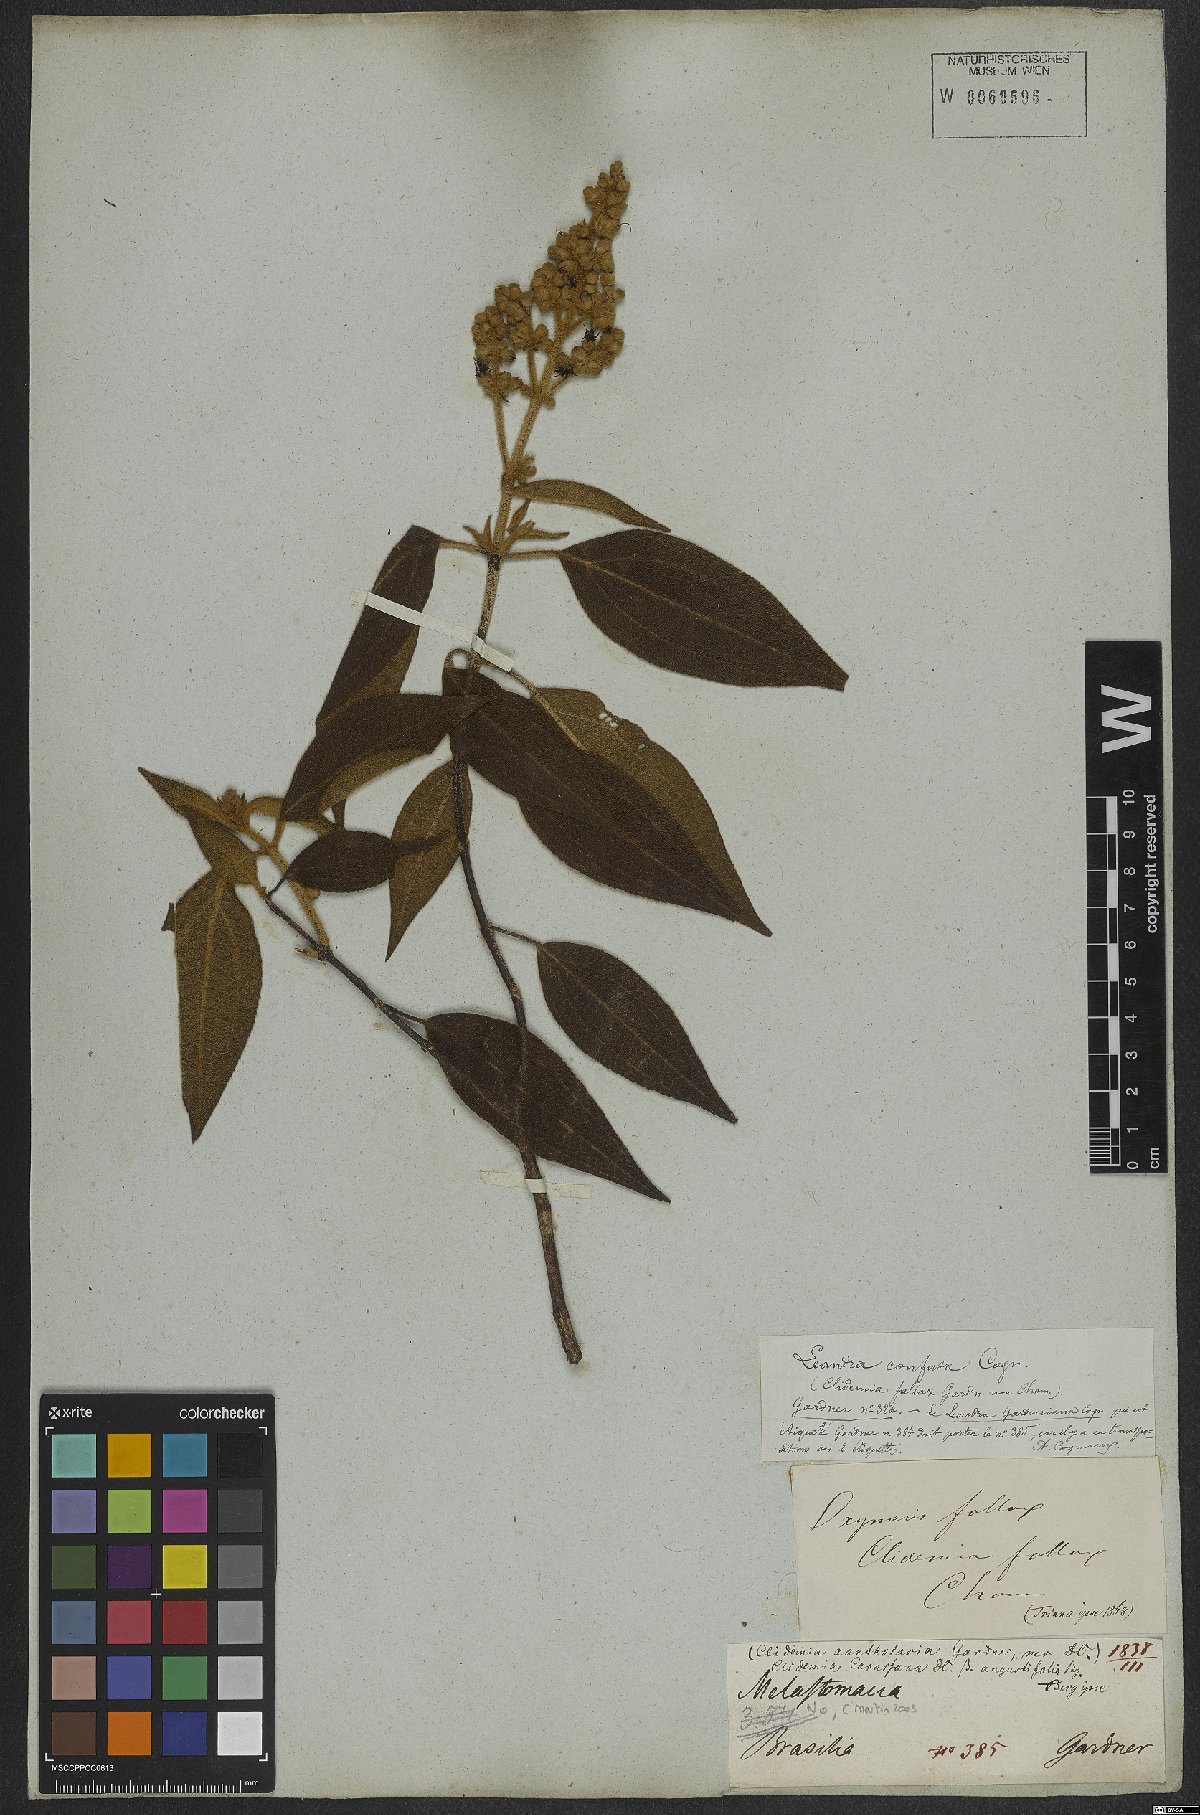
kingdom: Plantae
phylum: Tracheophyta
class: Magnoliopsida
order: Myrtales
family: Melastomataceae
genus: Miconia
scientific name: Miconia leaconfusa
